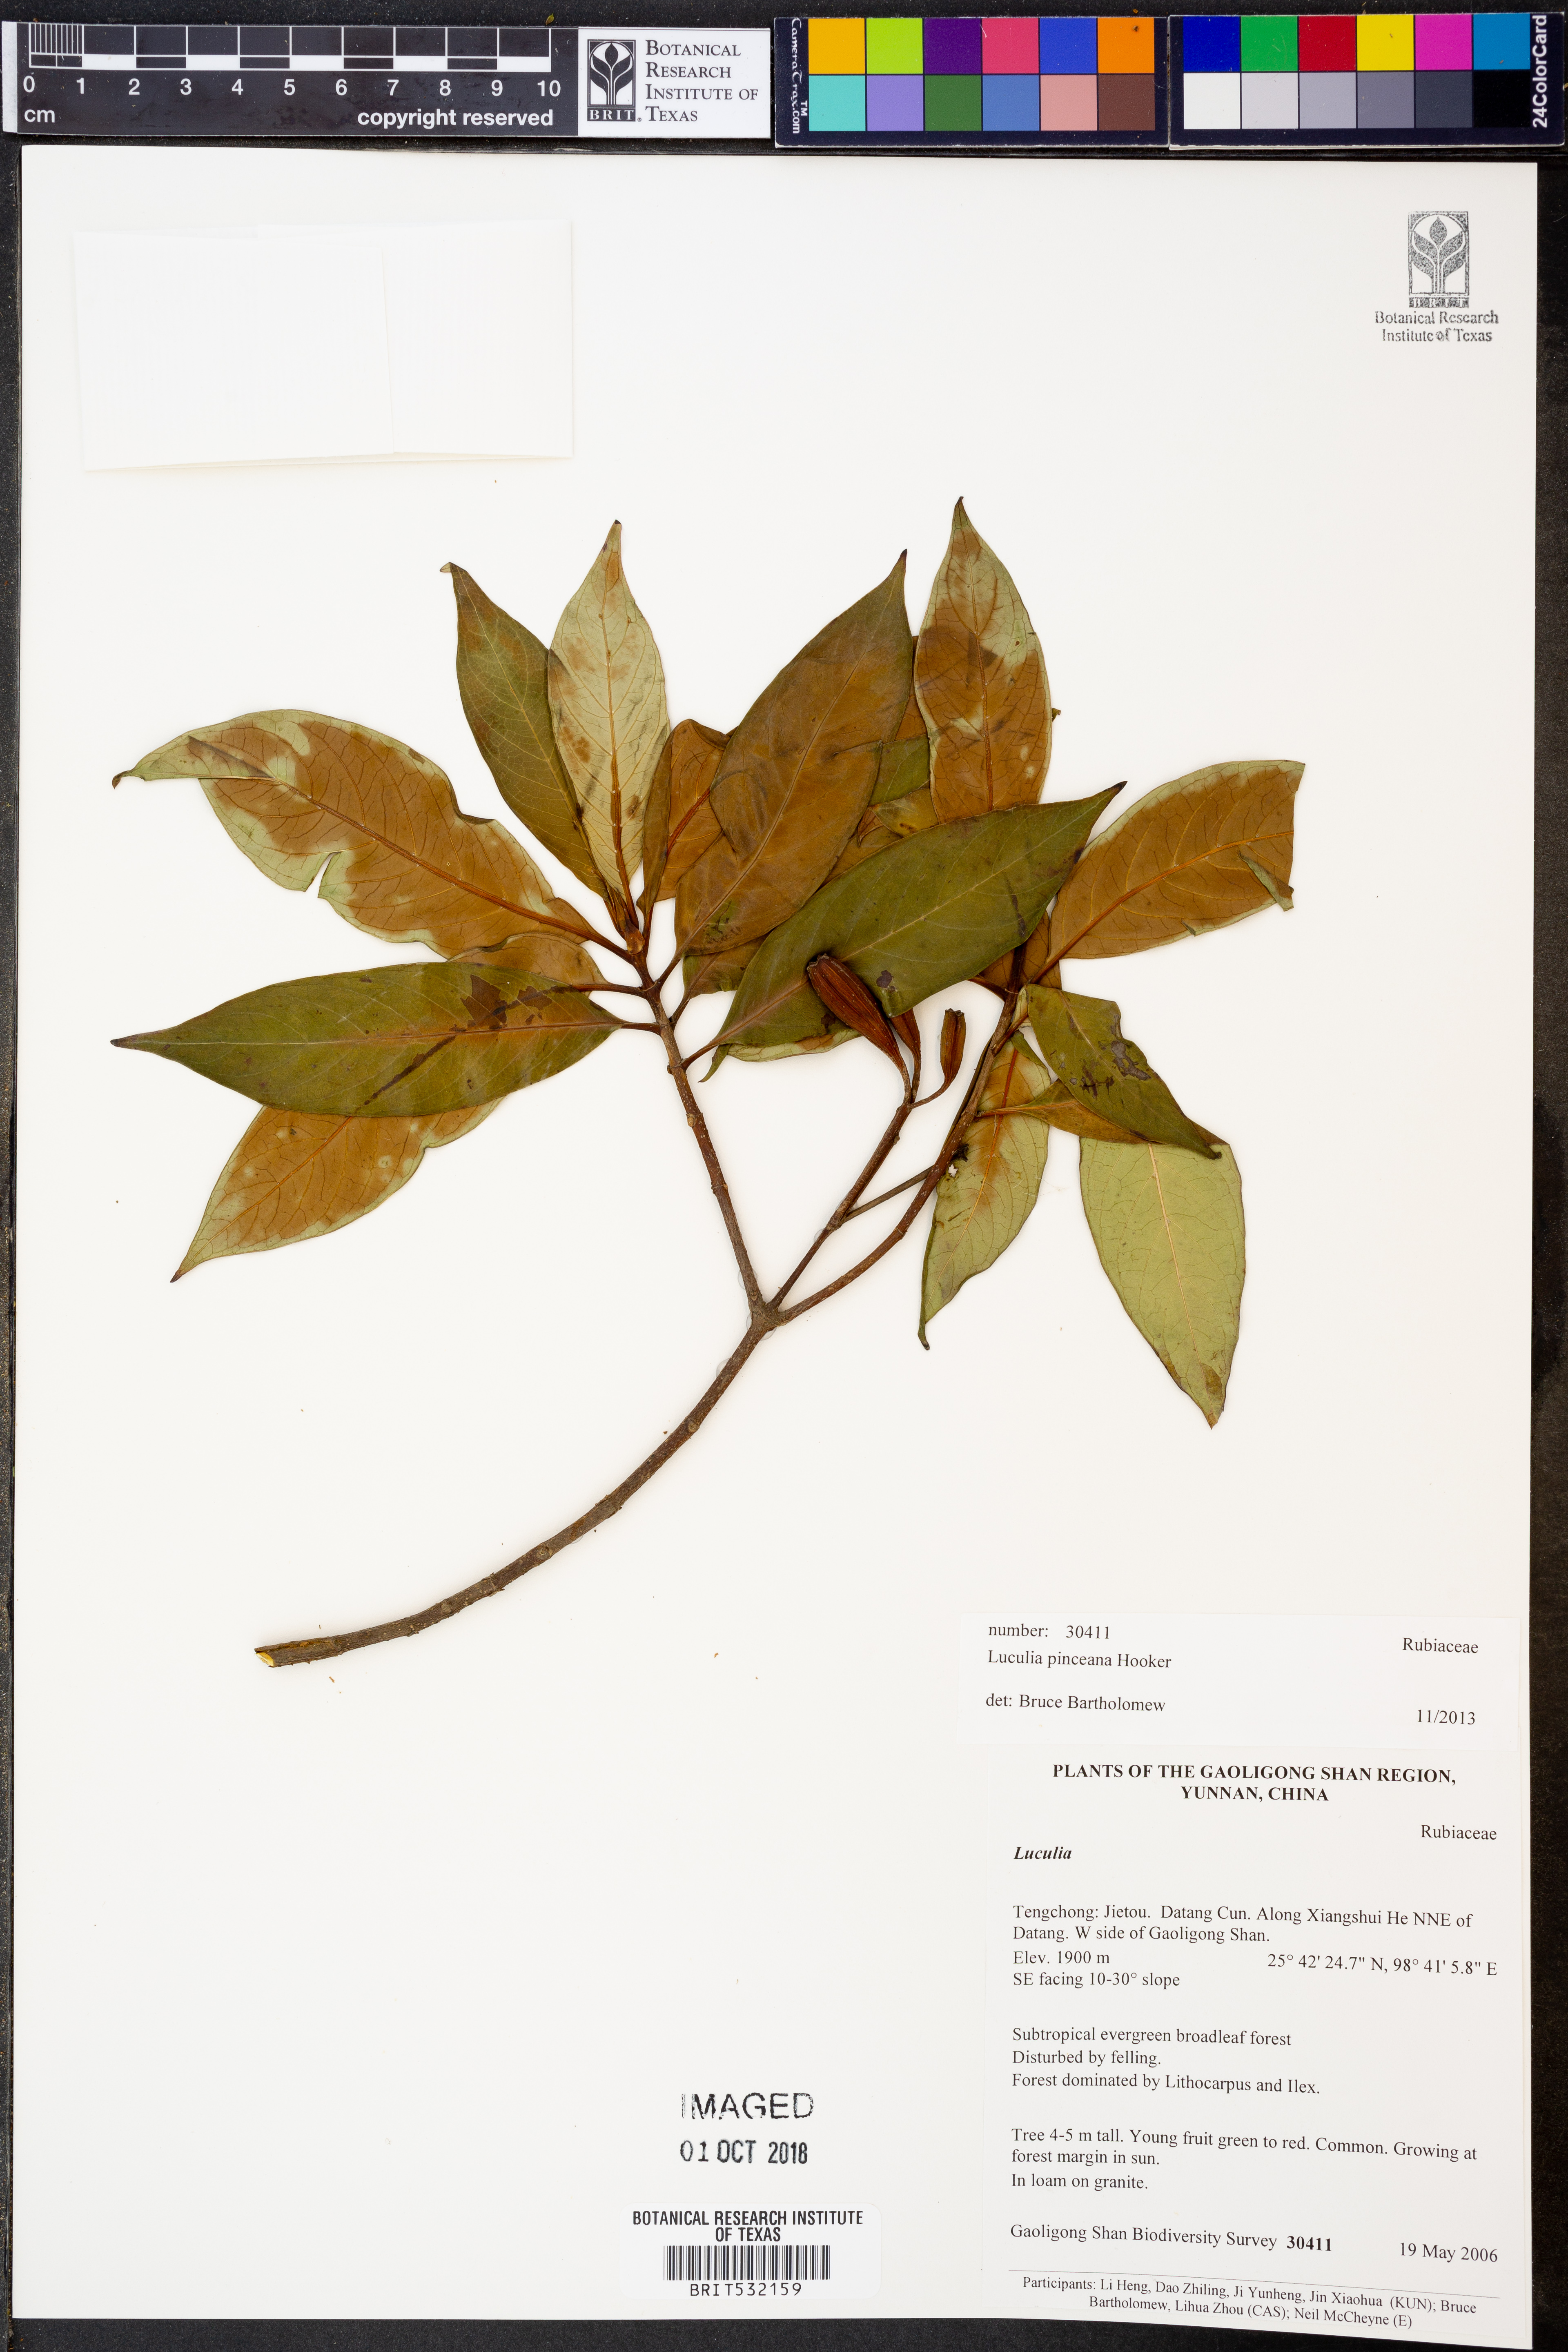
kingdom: Plantae
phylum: Tracheophyta
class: Magnoliopsida
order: Gentianales
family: Rubiaceae
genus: Luculia
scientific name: Luculia pinceana
